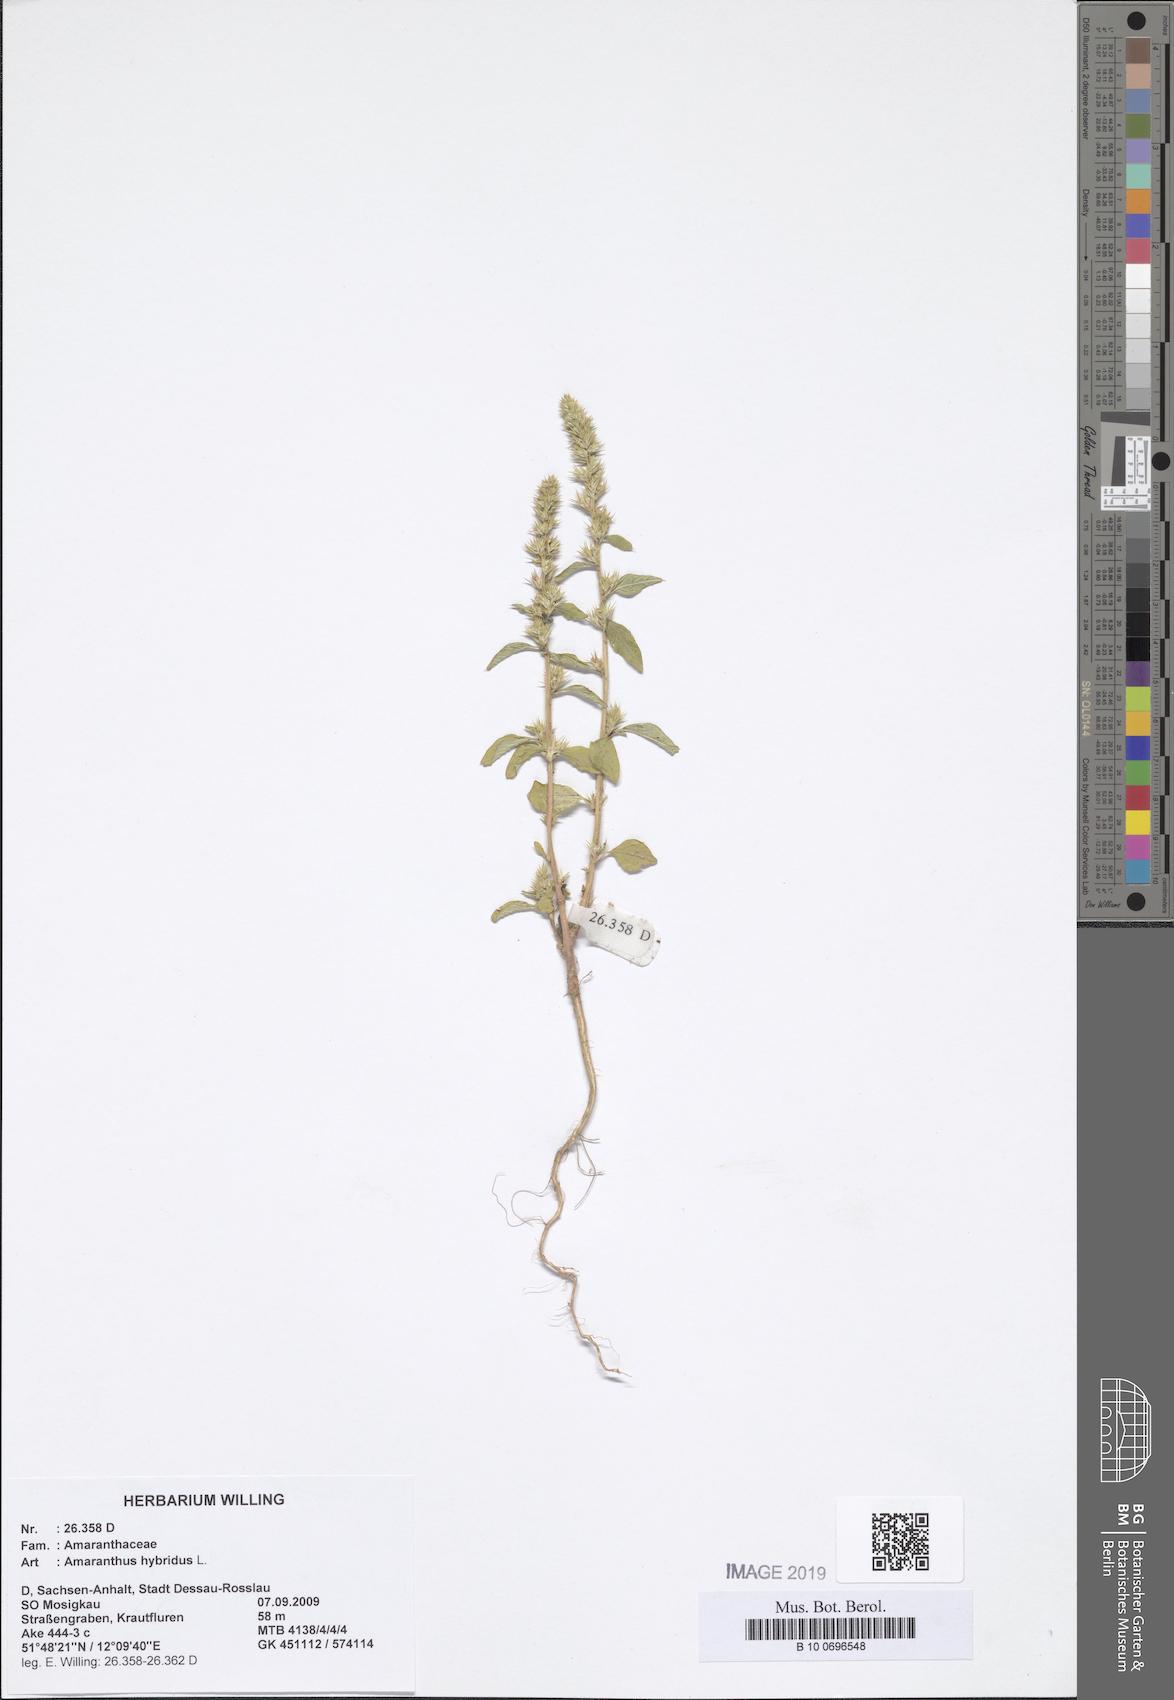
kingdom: Plantae
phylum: Tracheophyta
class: Magnoliopsida
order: Caryophyllales
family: Amaranthaceae
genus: Amaranthus
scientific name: Amaranthus hybridus
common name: Green amaranth
